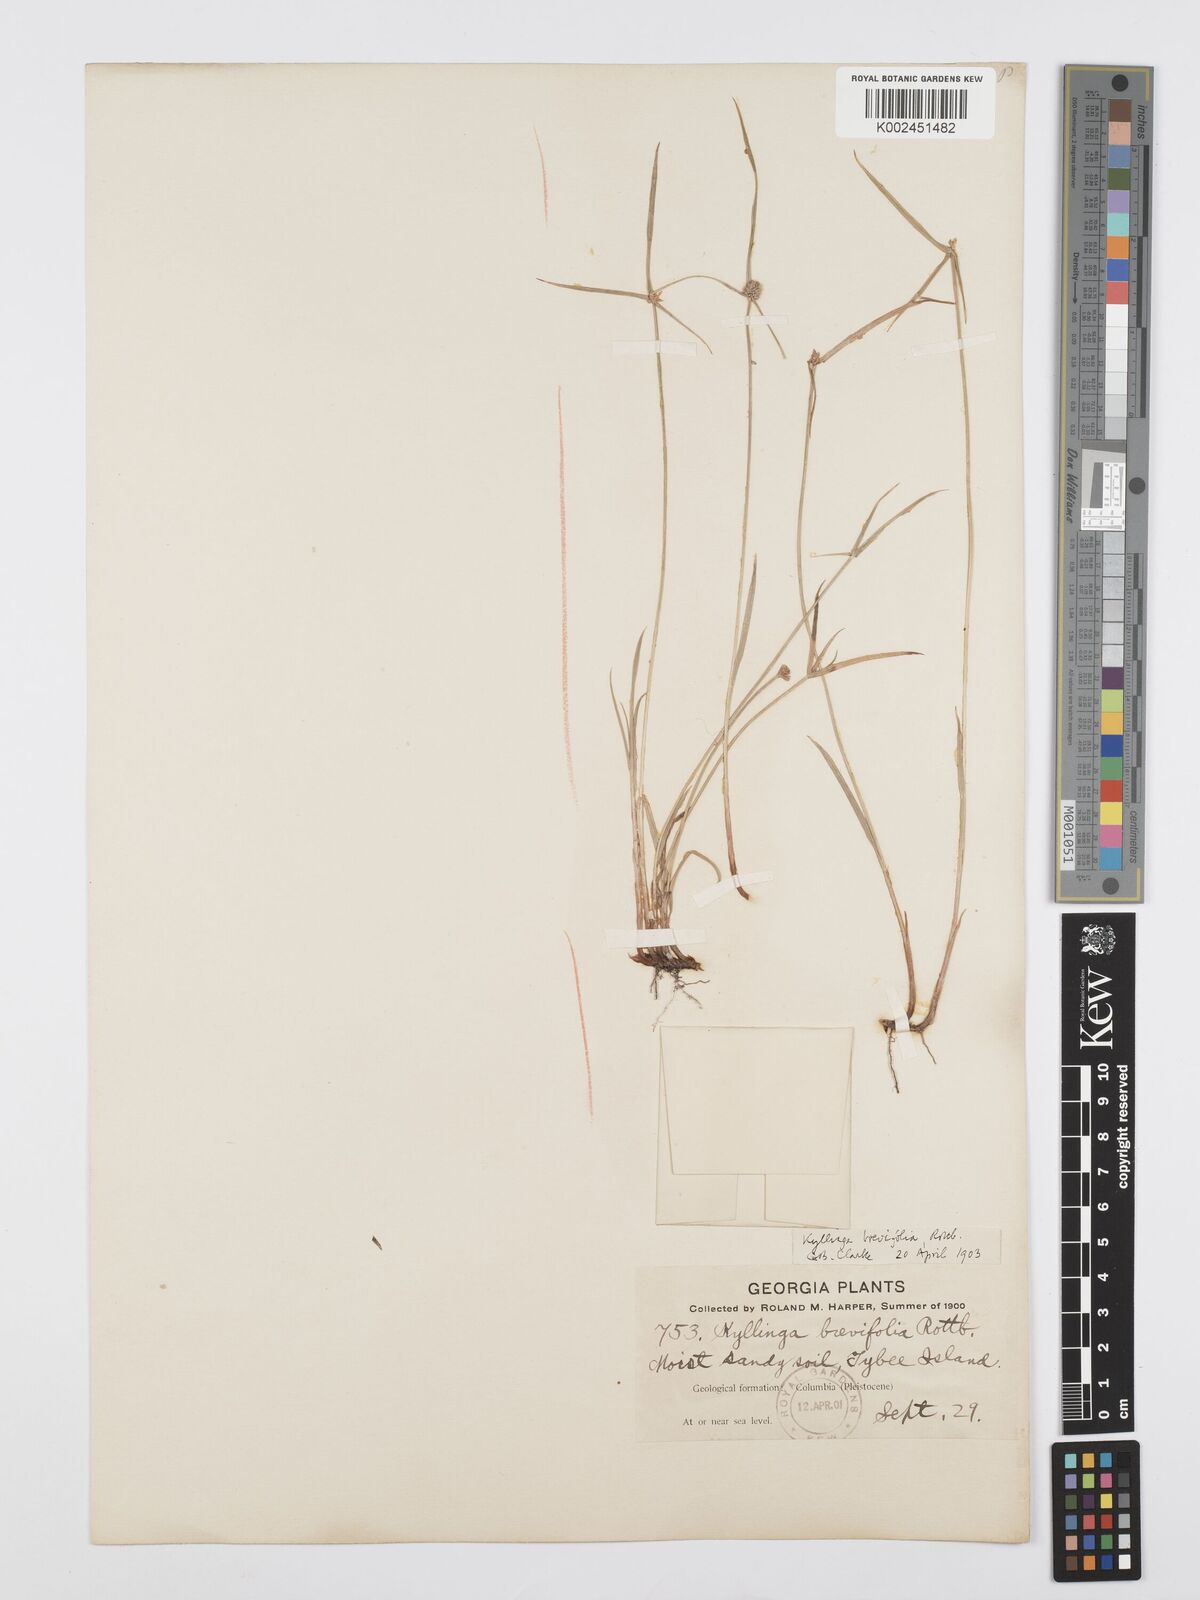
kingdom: Plantae
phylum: Tracheophyta
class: Liliopsida
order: Poales
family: Cyperaceae
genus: Cyperus
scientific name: Cyperus brevifolius
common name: Globe kyllinga
